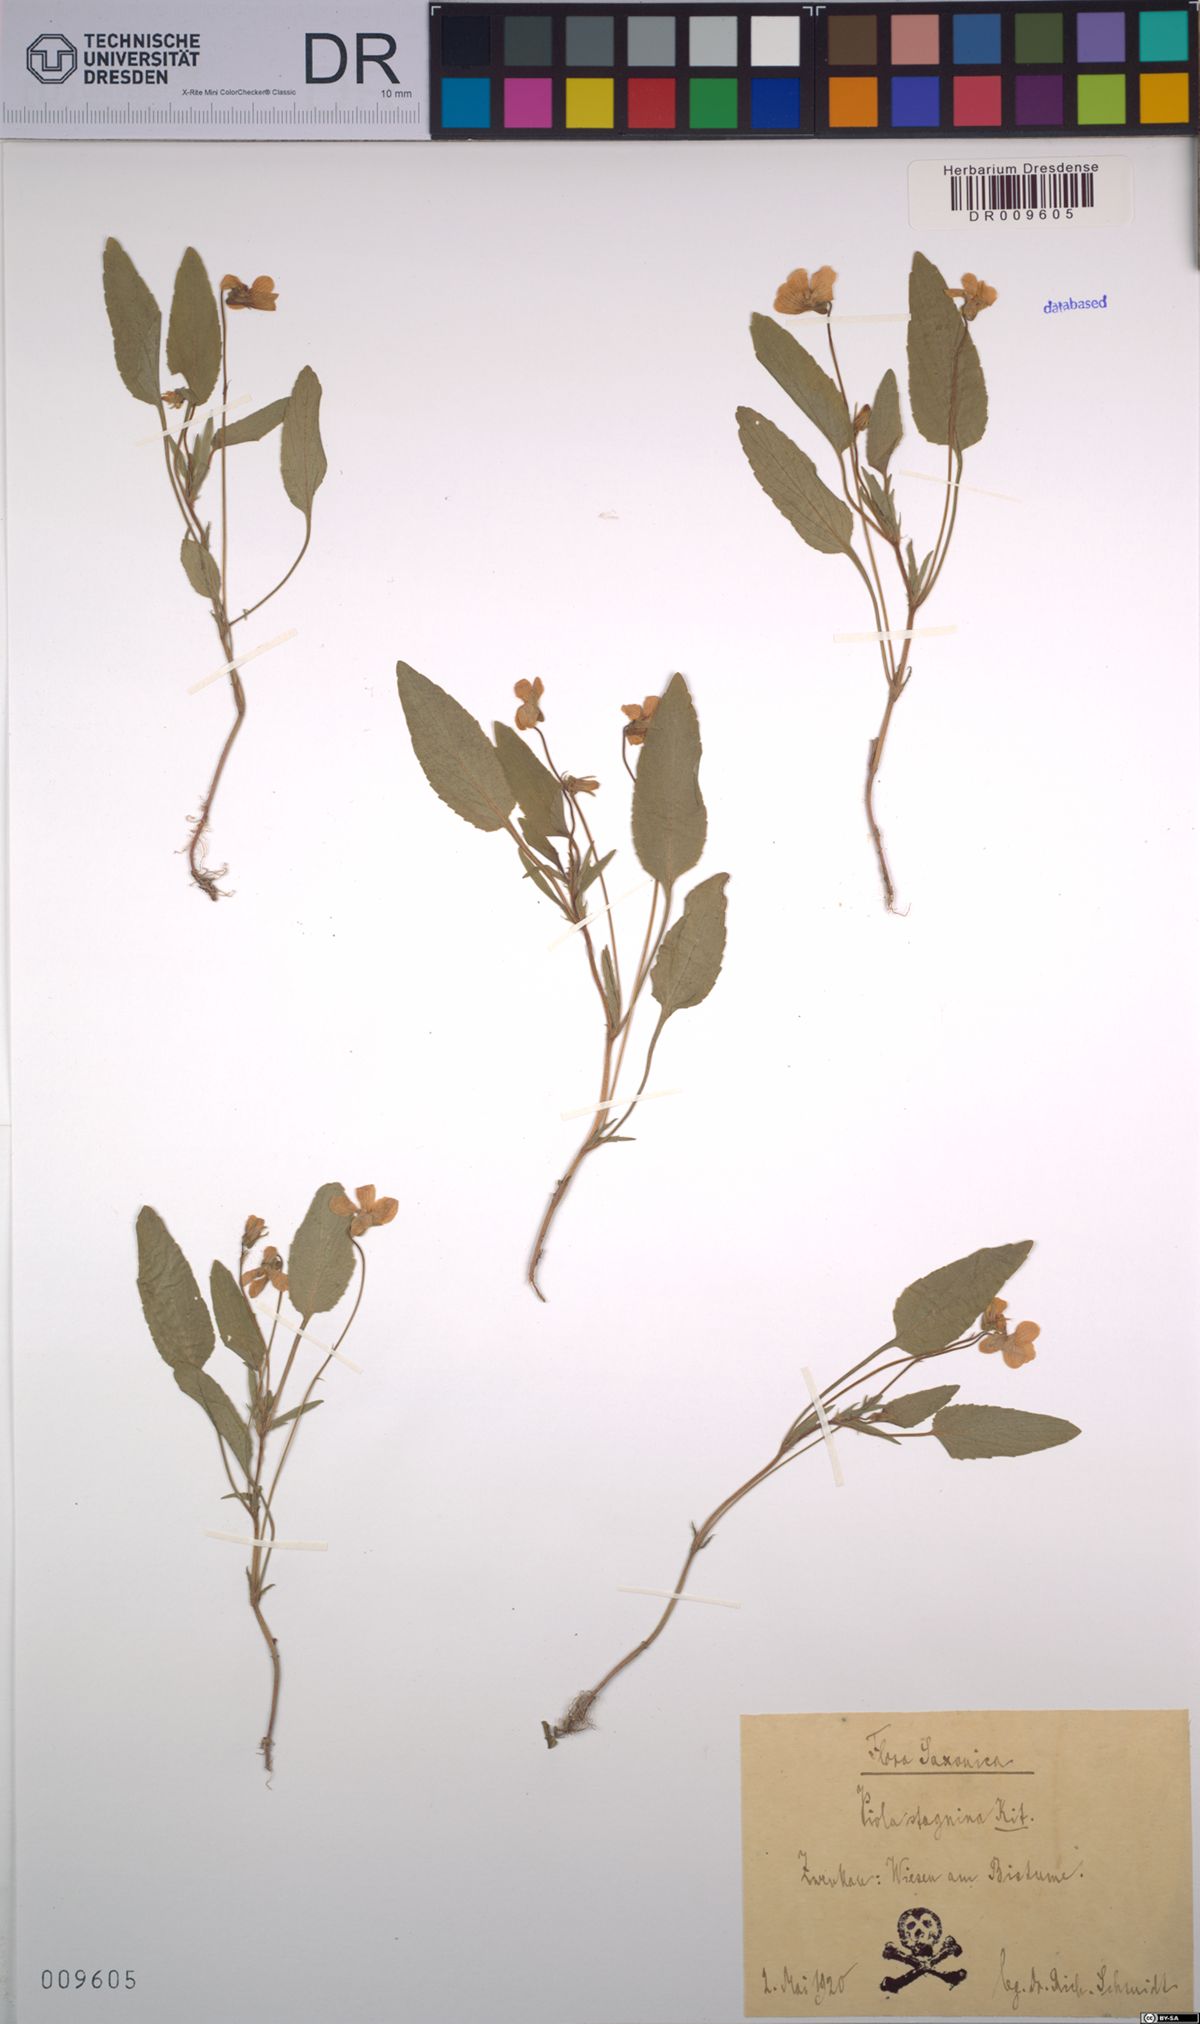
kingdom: Plantae
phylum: Tracheophyta
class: Magnoliopsida
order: Malpighiales
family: Violaceae
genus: Viola
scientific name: Viola stagnina
